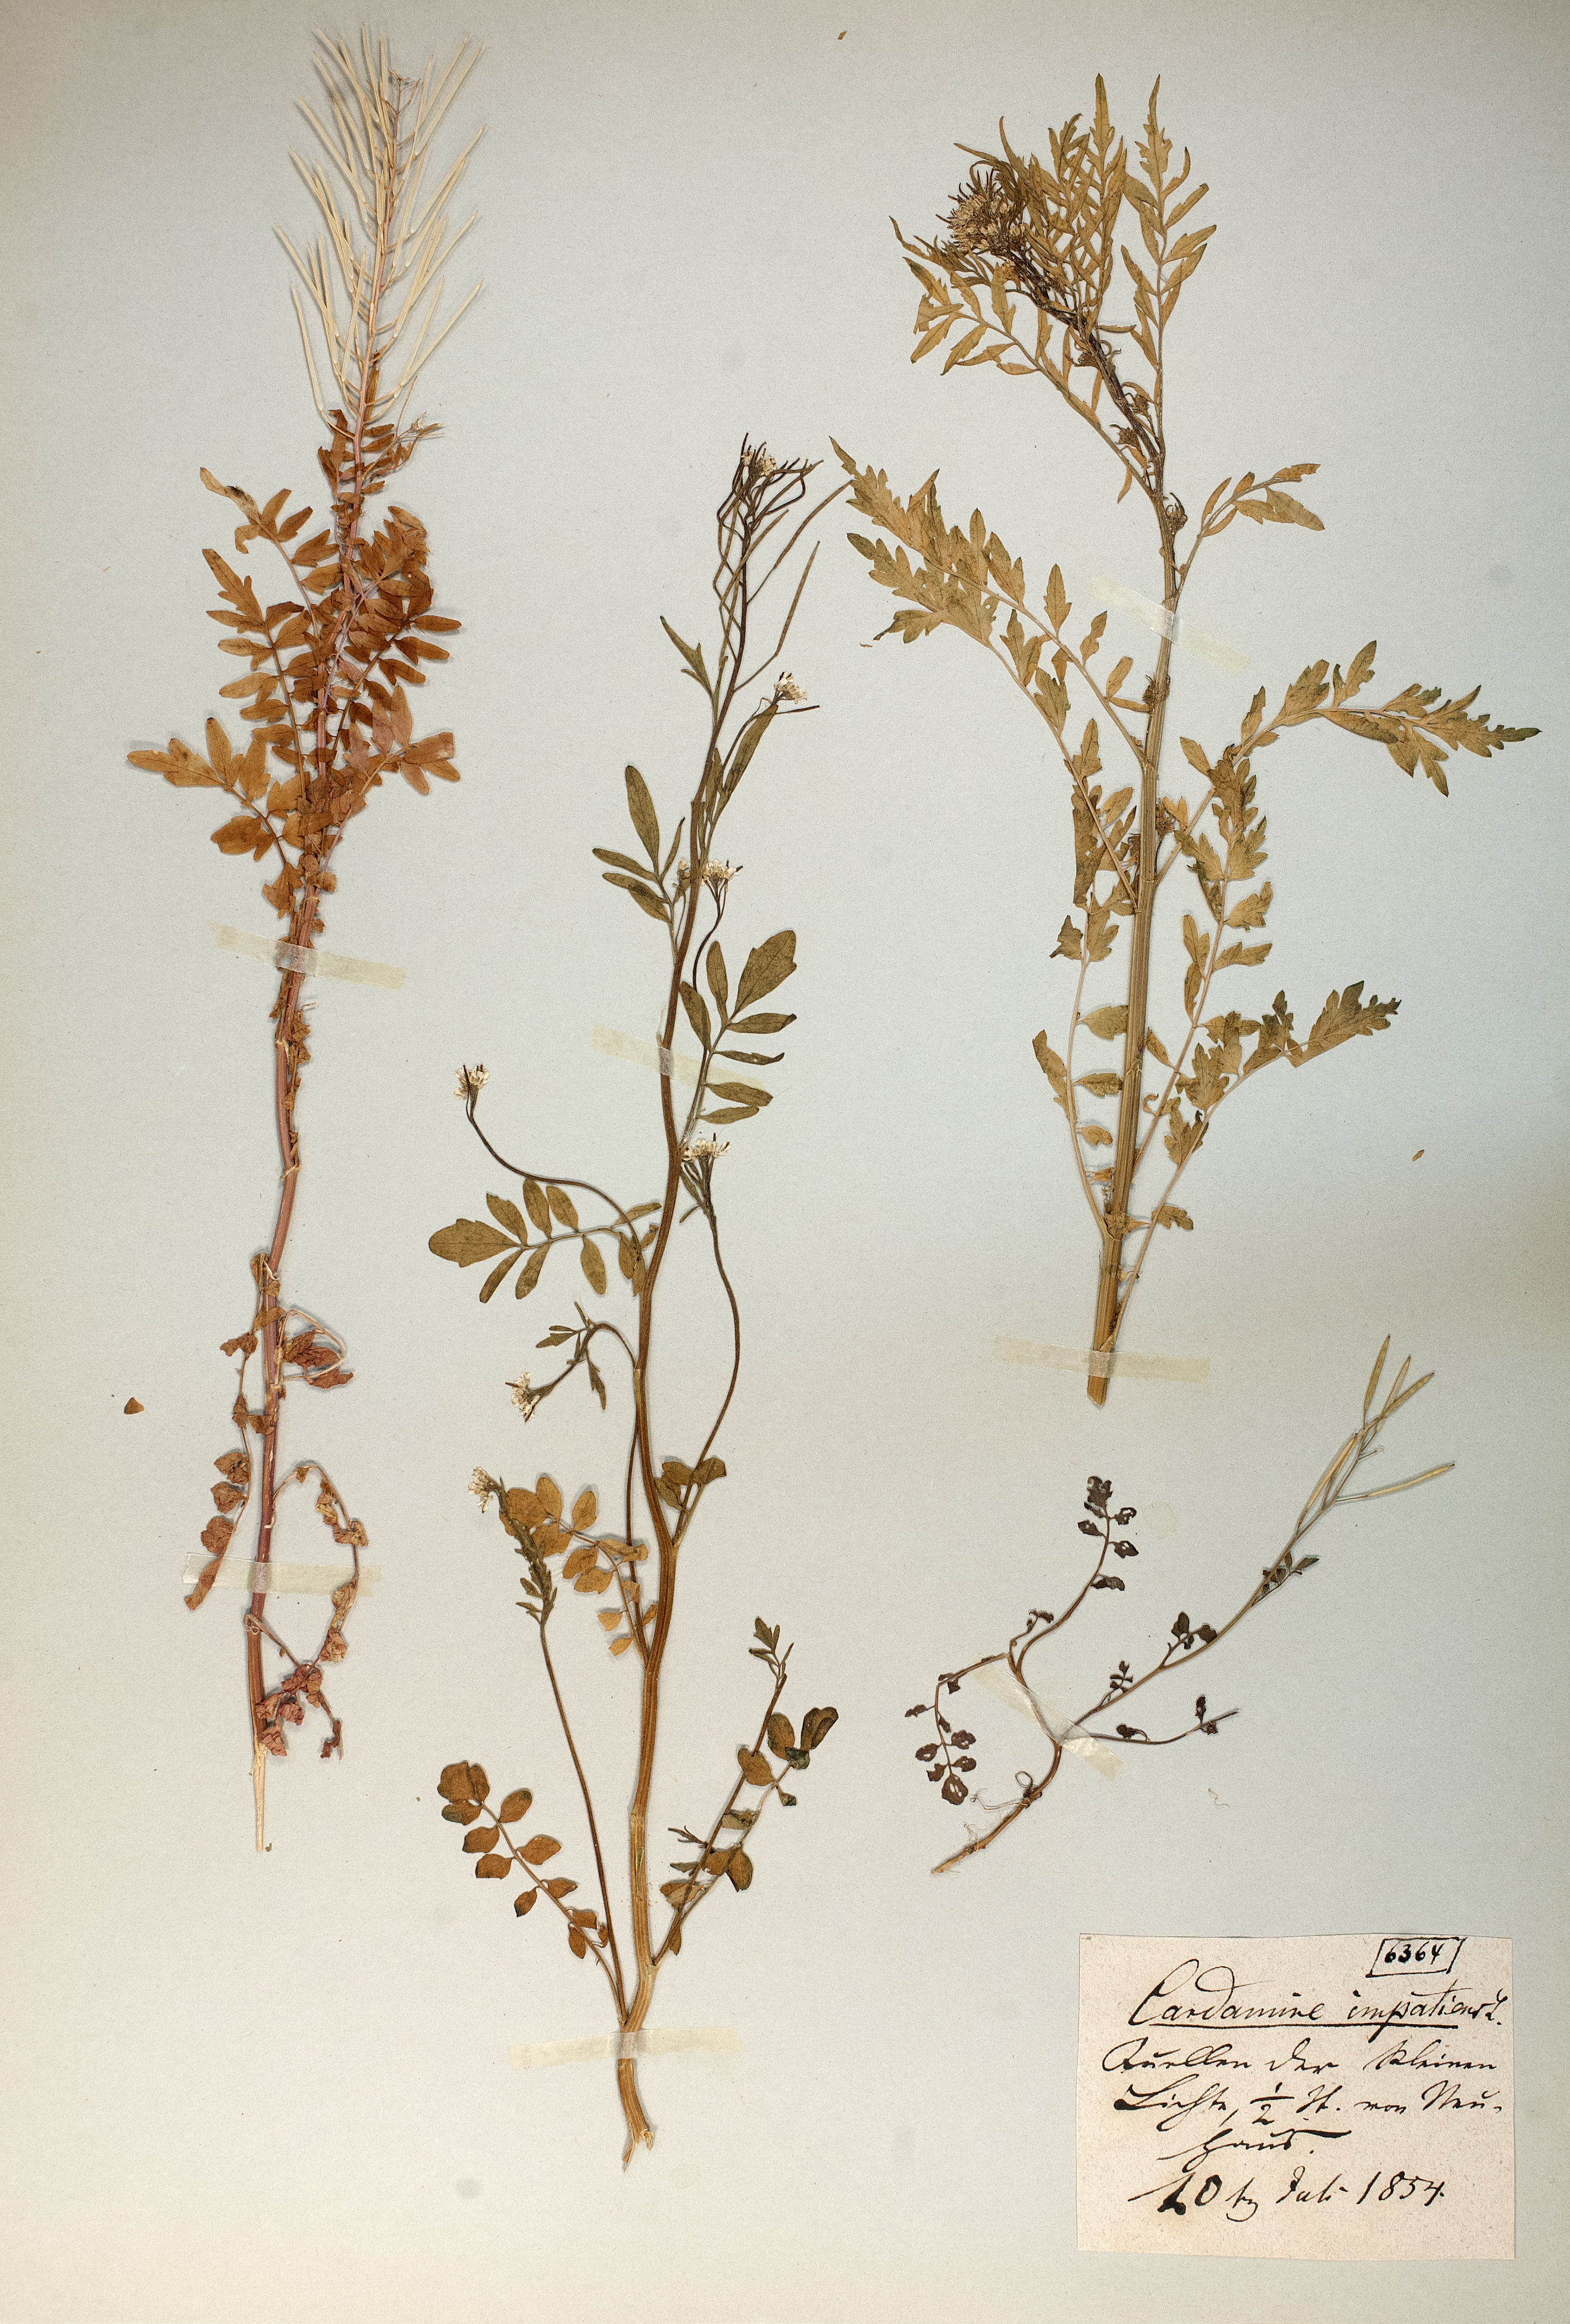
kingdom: Plantae
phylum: Tracheophyta
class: Magnoliopsida
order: Brassicales
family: Brassicaceae
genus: Cardamine
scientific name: Cardamine impatiens
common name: Narrow-leaved bitter-cress
